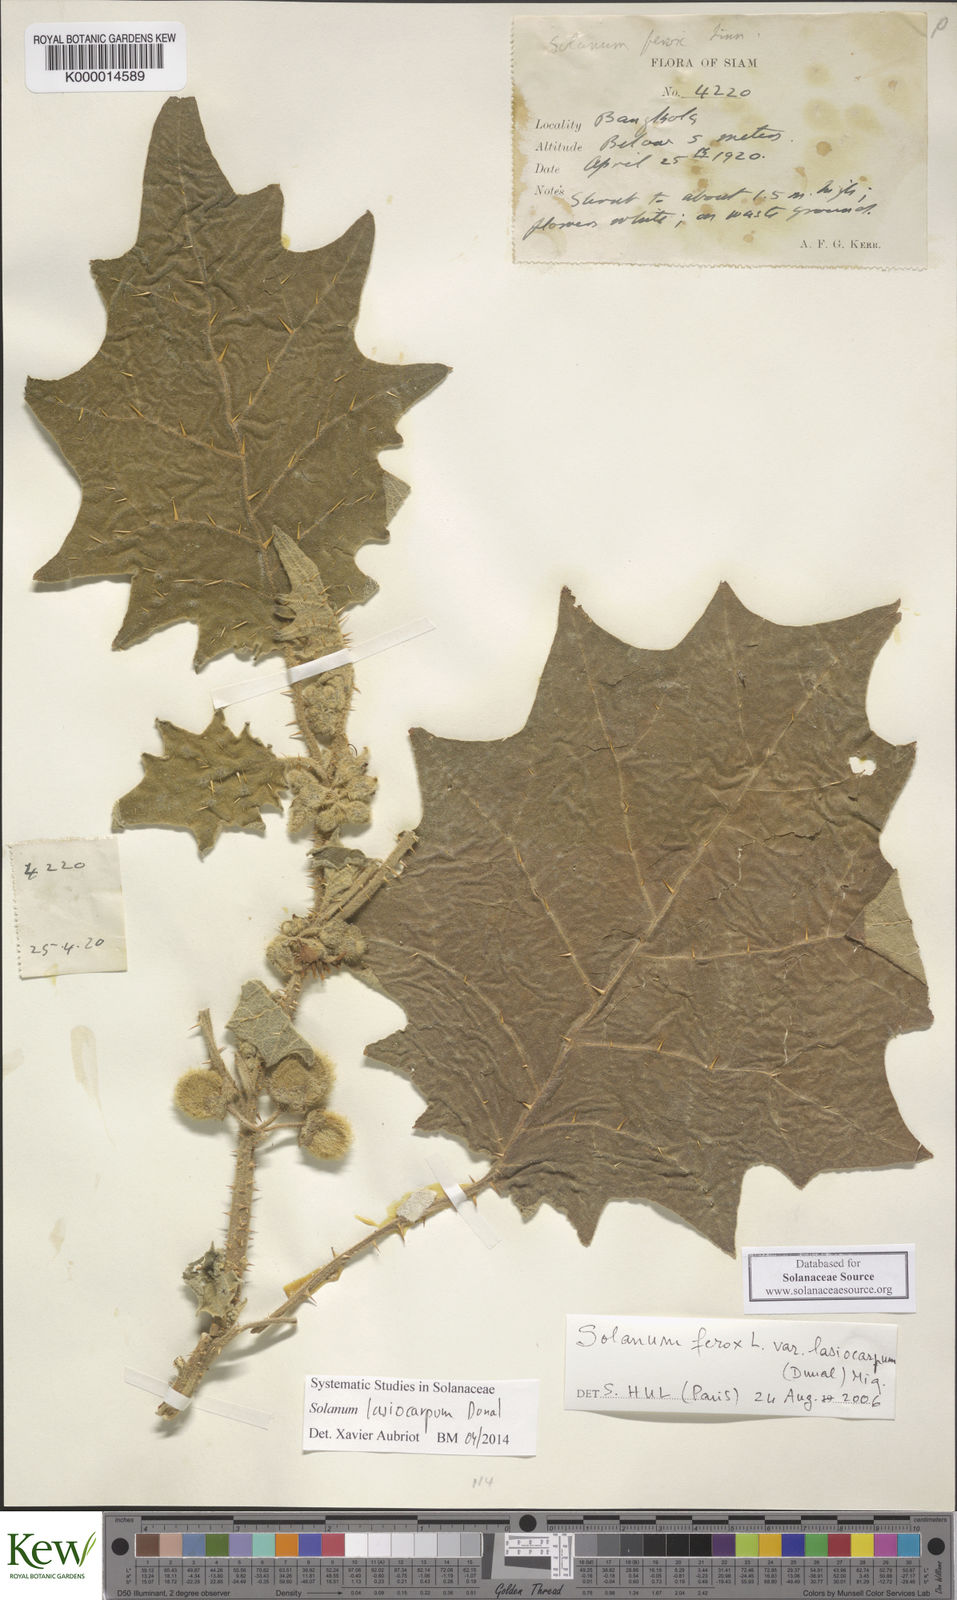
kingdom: Plantae
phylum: Tracheophyta
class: Magnoliopsida
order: Solanales
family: Solanaceae
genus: Solanum
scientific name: Solanum lasiocarpum
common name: Indian nightshade
